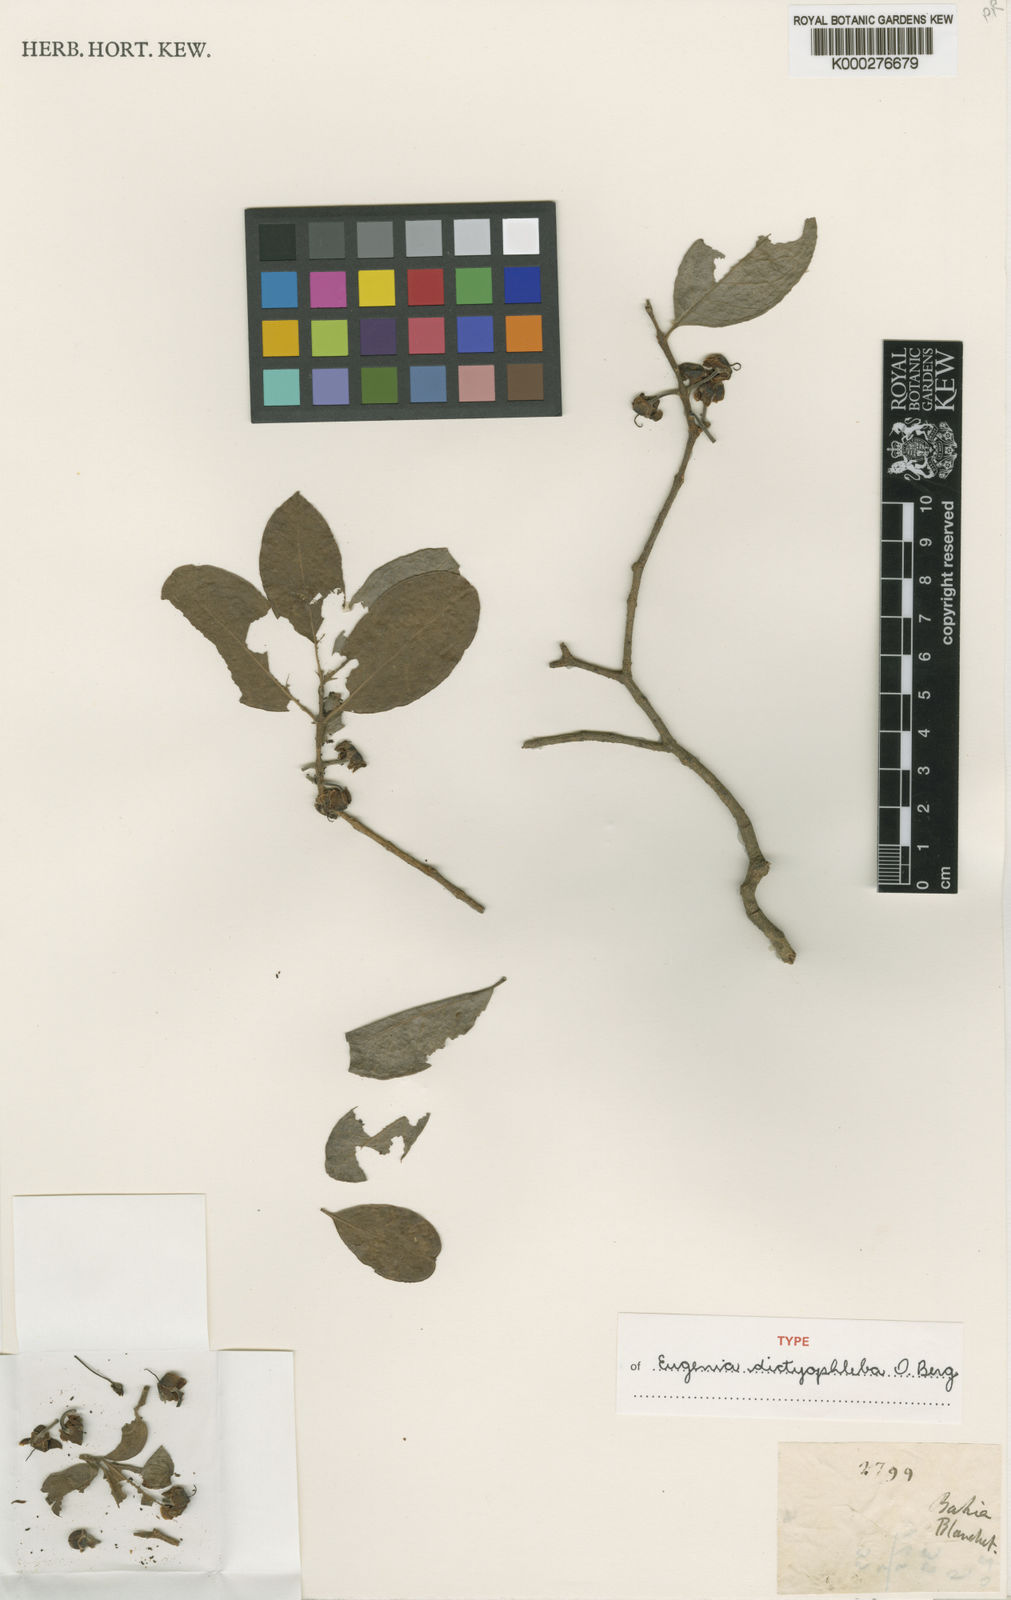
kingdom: Plantae
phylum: Tracheophyta
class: Magnoliopsida
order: Myrtales
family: Myrtaceae
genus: Eugenia
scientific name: Eugenia dictyophleba
